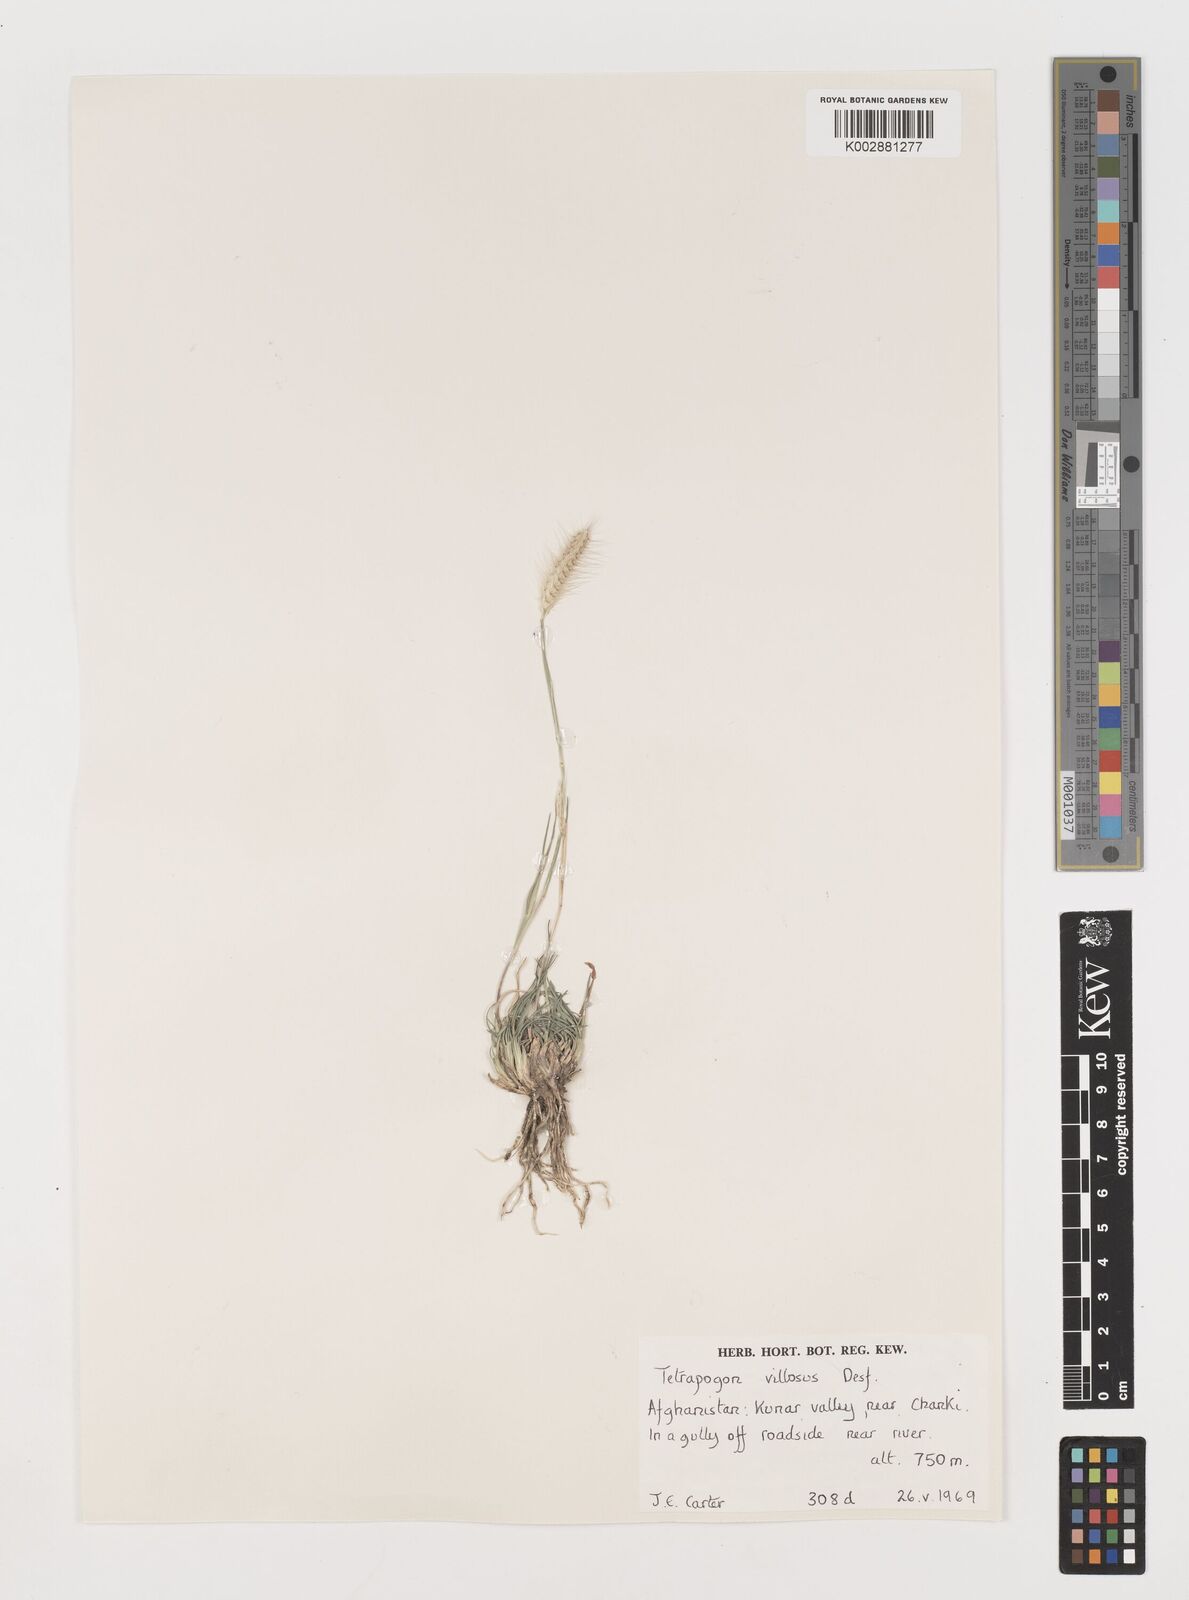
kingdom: Plantae
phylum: Tracheophyta
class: Liliopsida
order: Poales
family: Poaceae
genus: Tetrapogon
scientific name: Tetrapogon villosus
